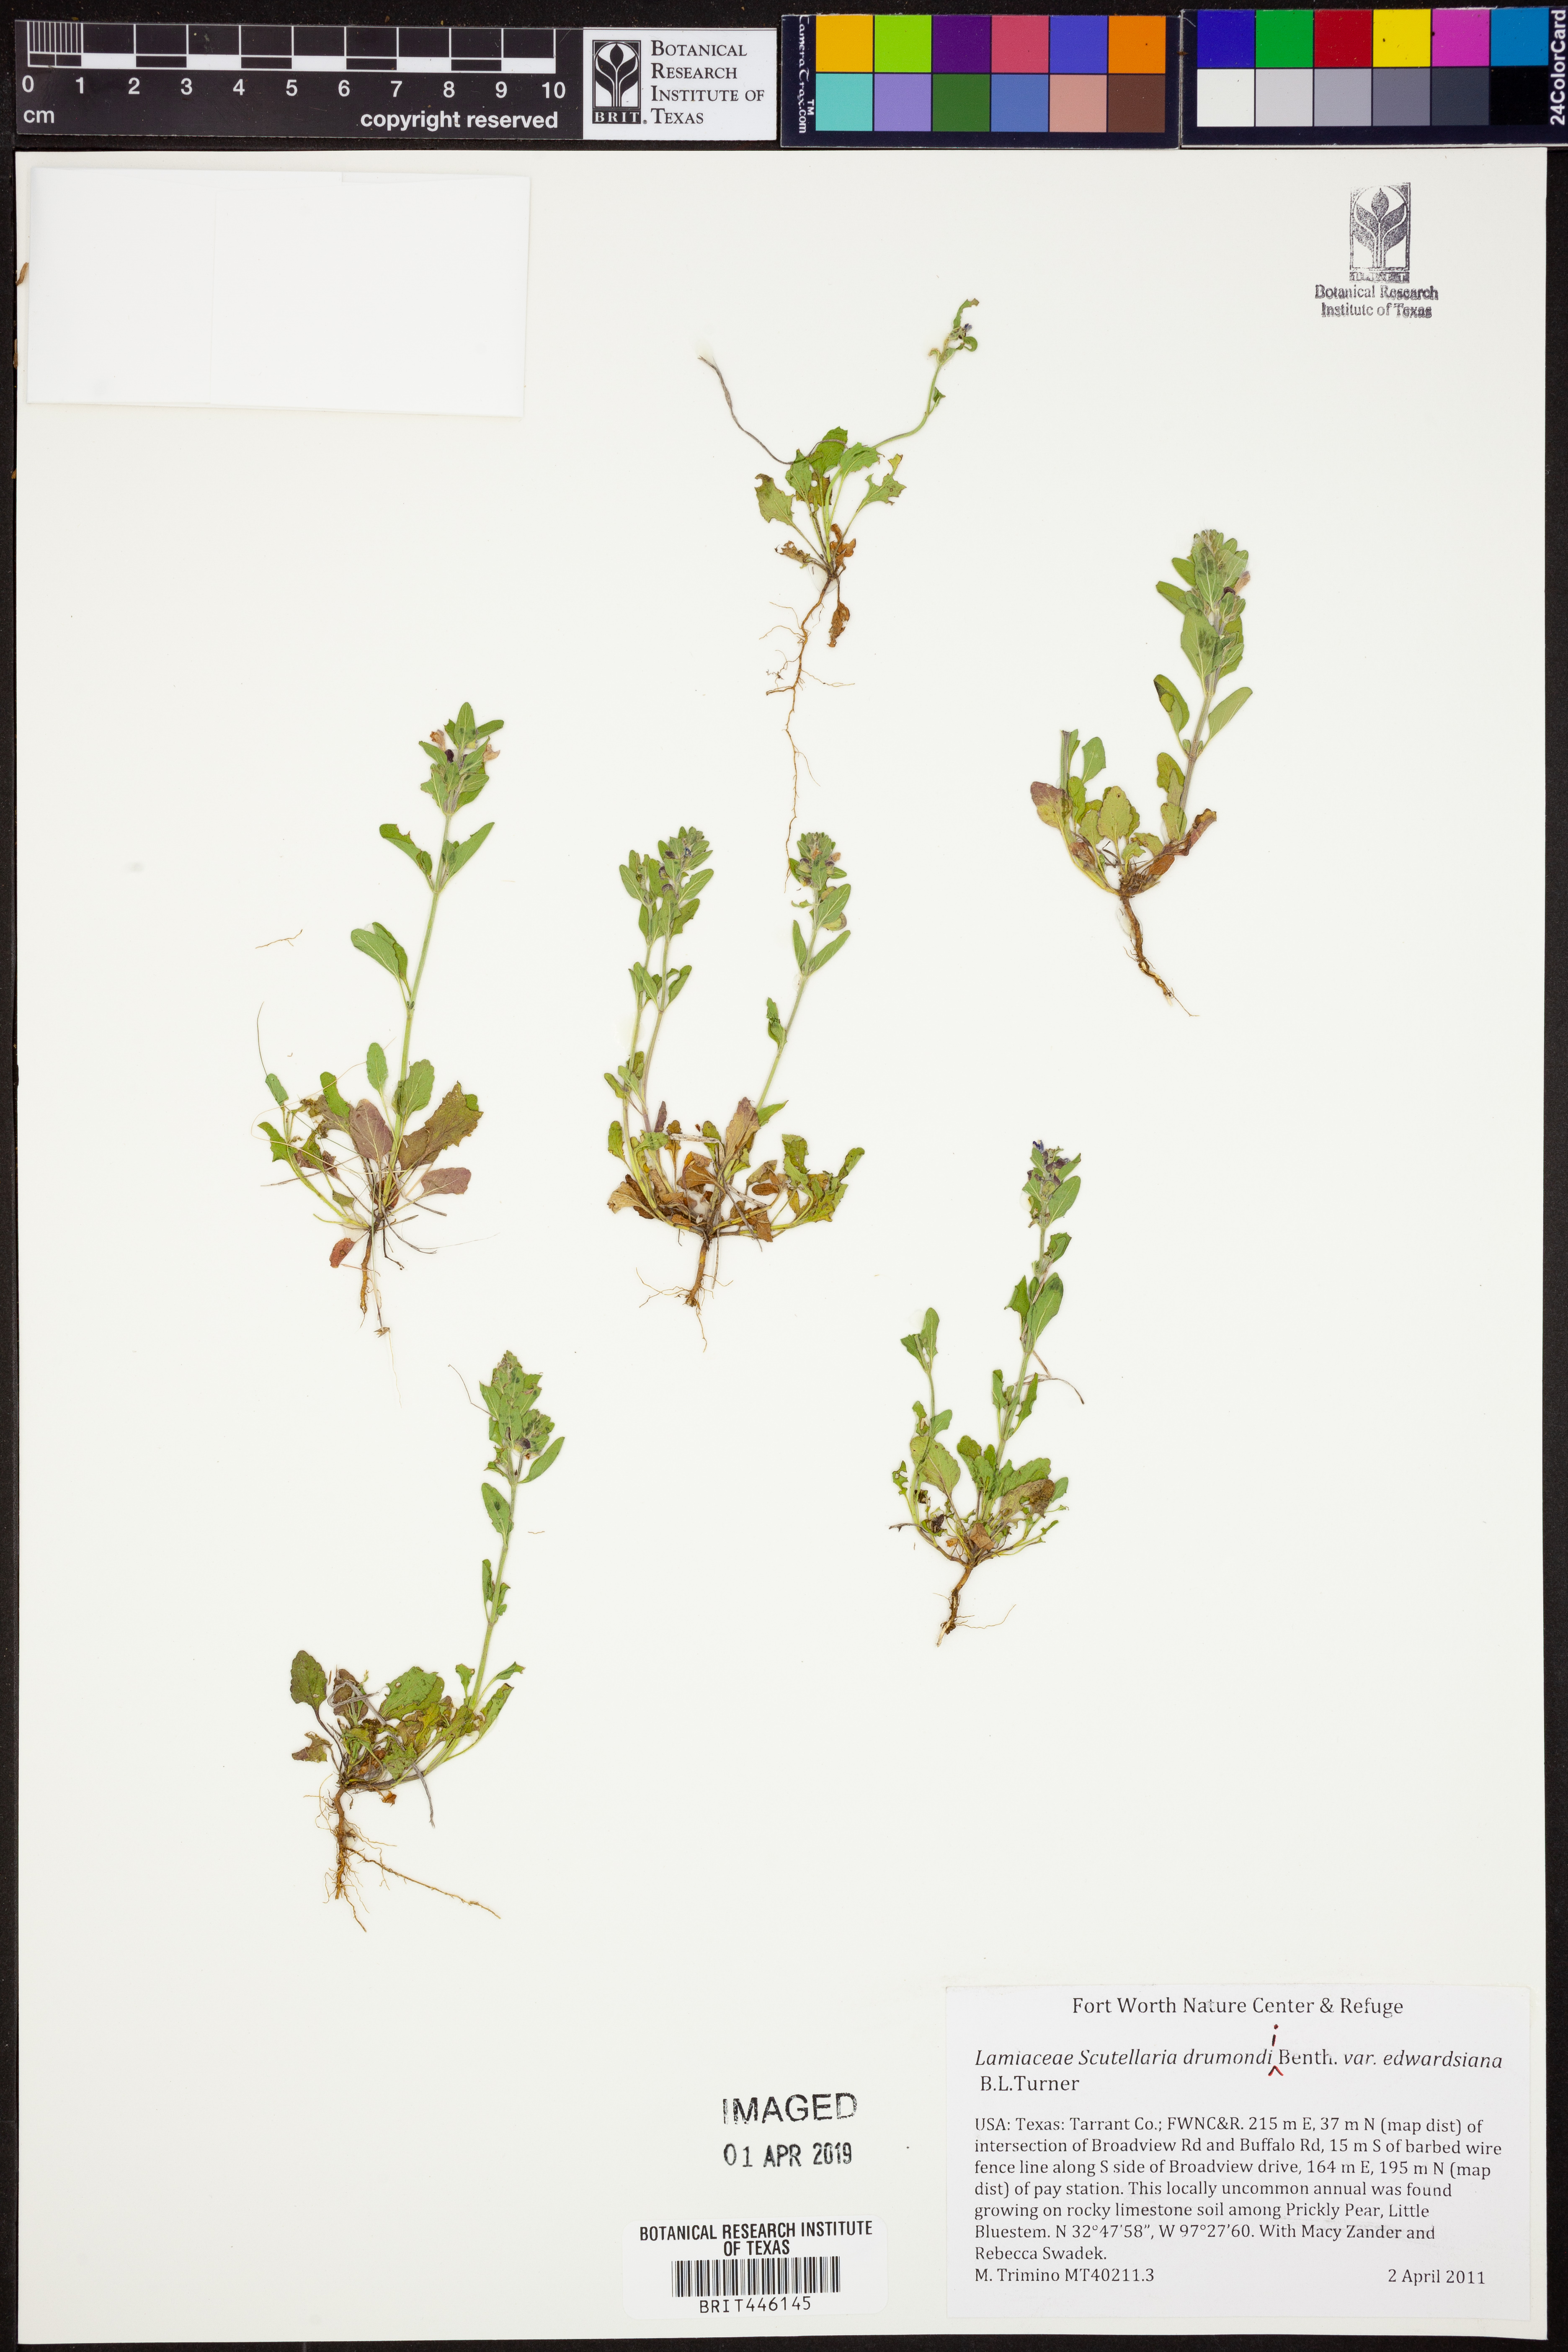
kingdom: Plantae
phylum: Tracheophyta
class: Magnoliopsida
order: Lamiales
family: Lamiaceae
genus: Scutellaria
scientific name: Scutellaria drummondii
